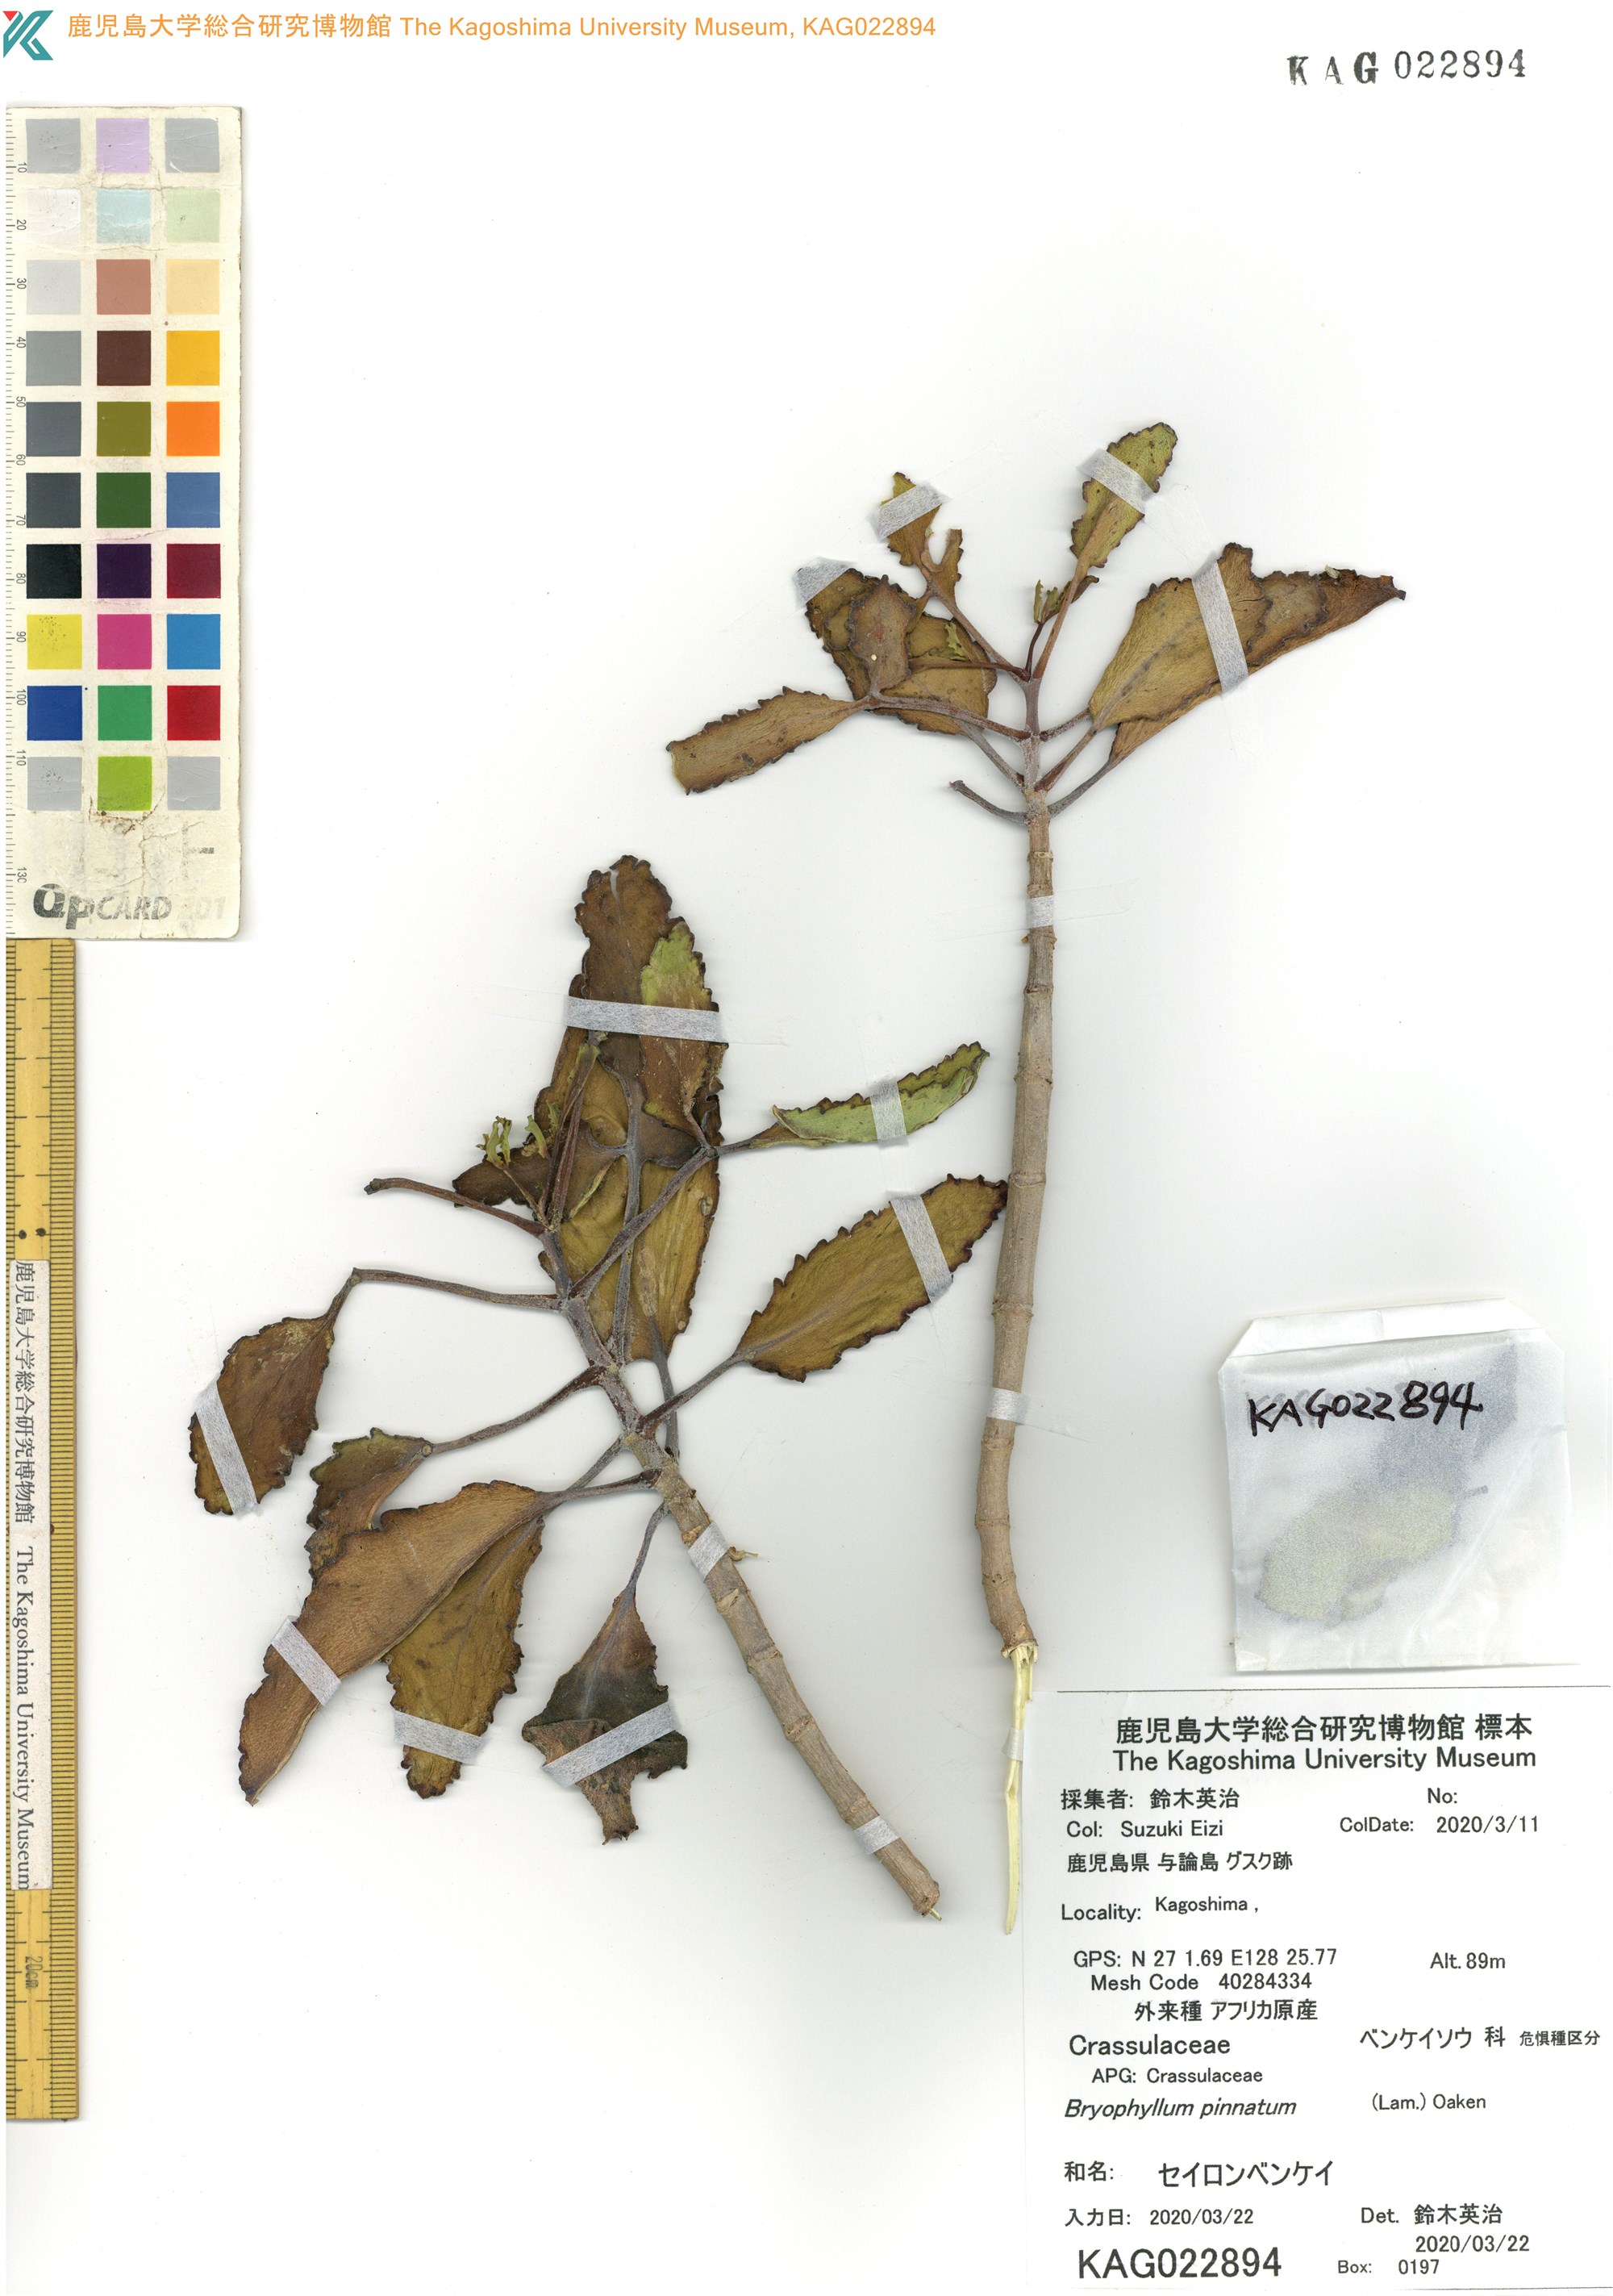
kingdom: Plantae
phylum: Tracheophyta
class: Magnoliopsida
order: Saxifragales
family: Crassulaceae
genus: Kalanchoe
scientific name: Kalanchoe pinnata
